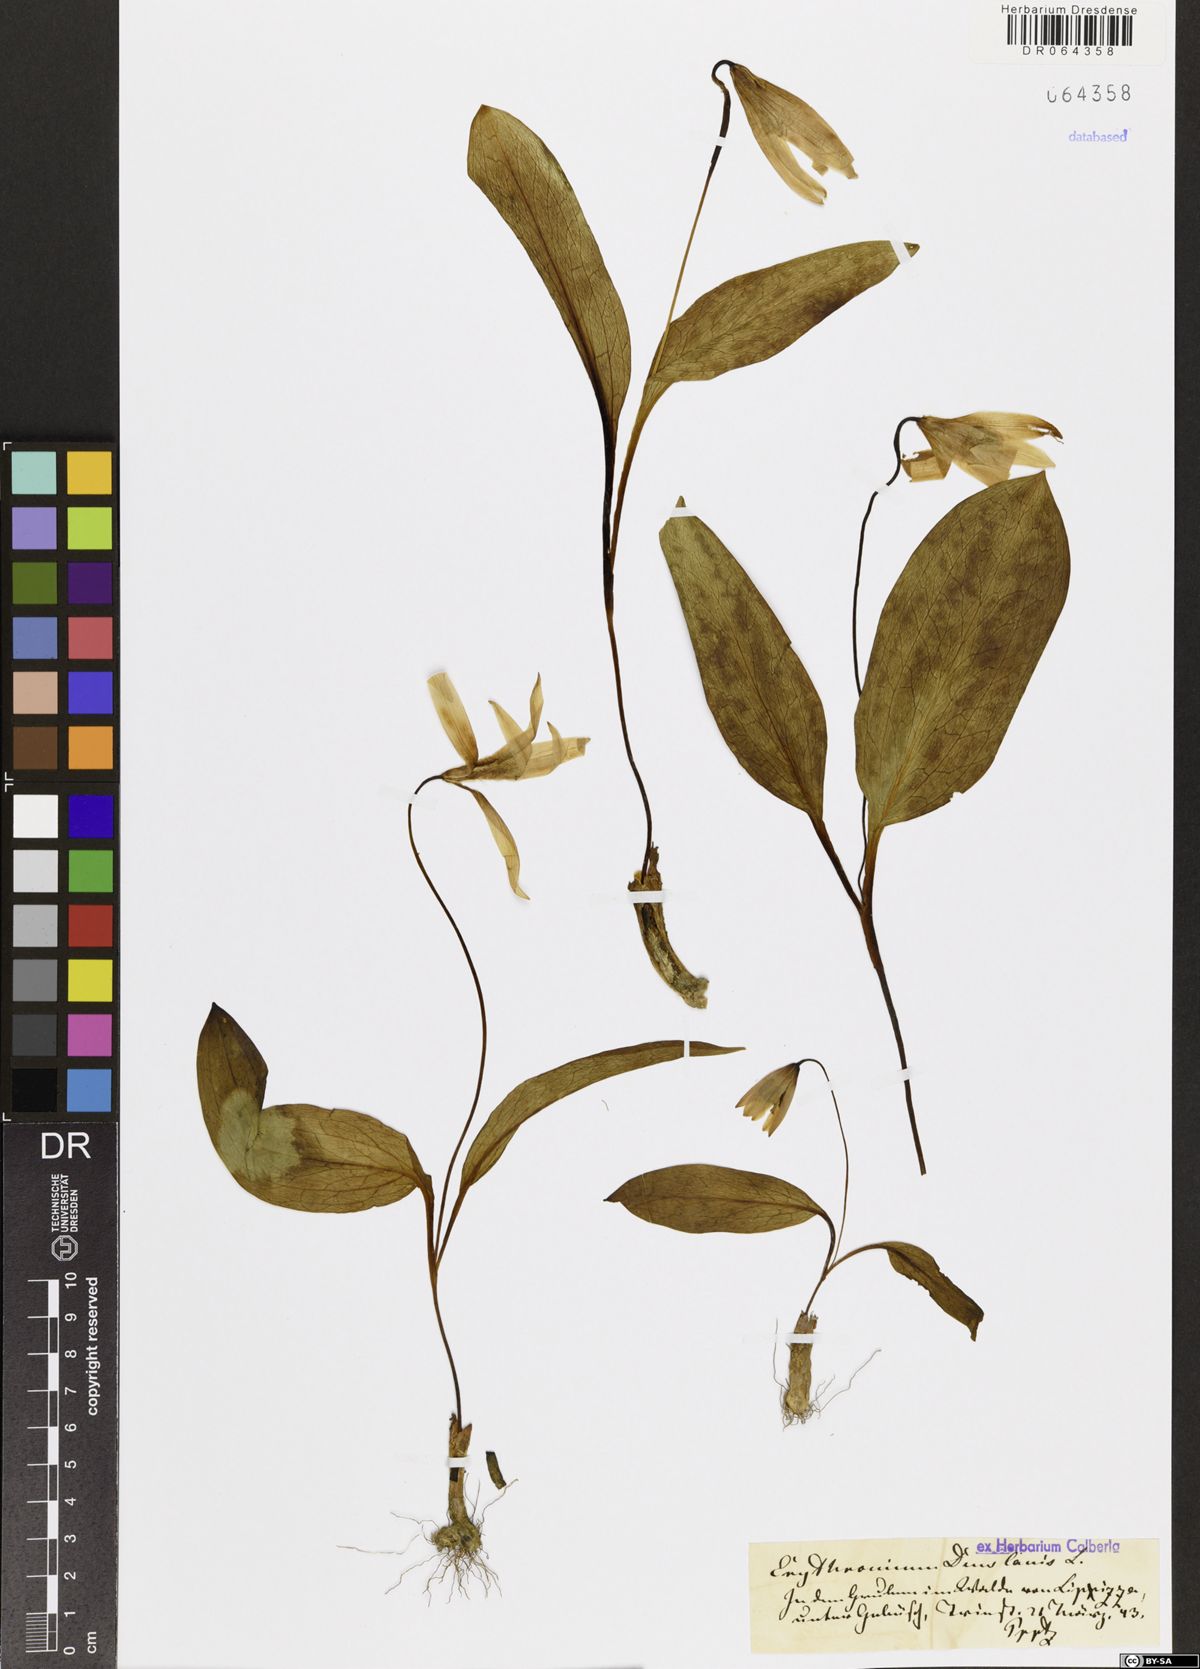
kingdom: Plantae
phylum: Tracheophyta
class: Liliopsida
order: Liliales
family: Liliaceae
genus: Erythronium
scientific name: Erythronium dens-canis
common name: Dog's-tooth-violet
